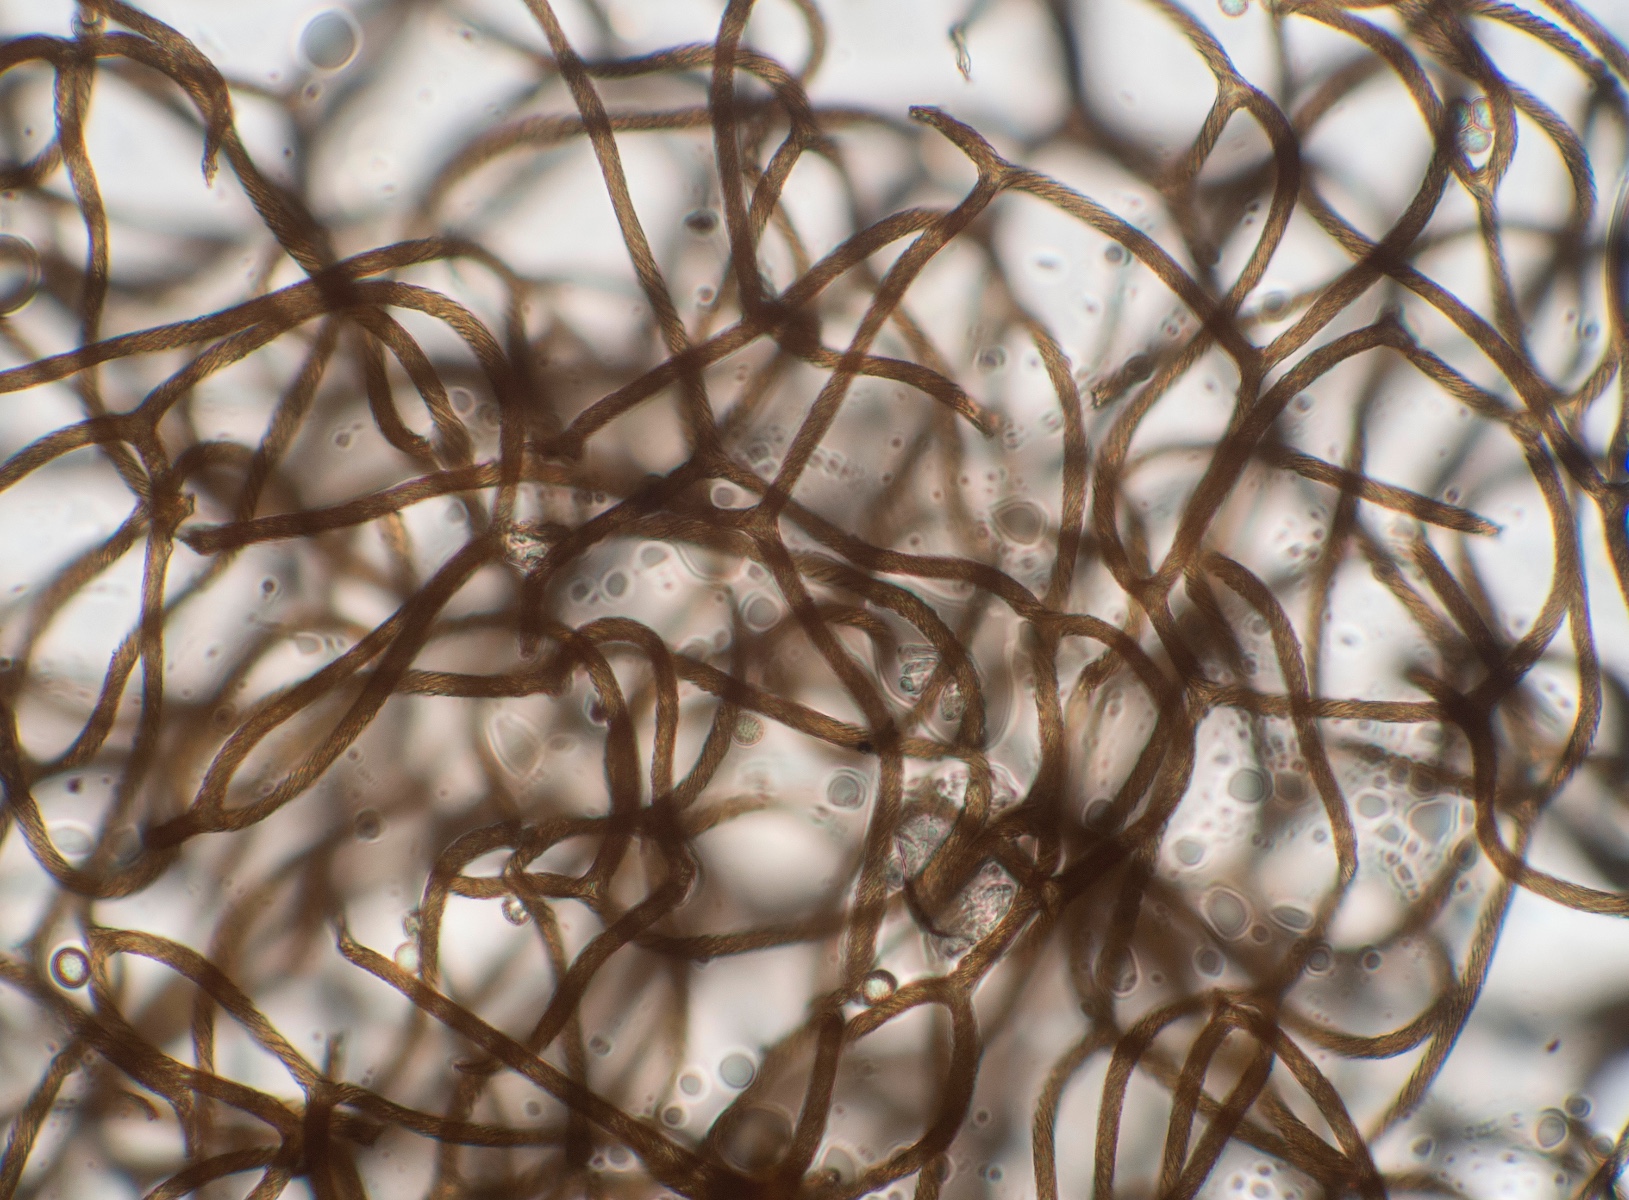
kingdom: Protozoa
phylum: Mycetozoa
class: Myxomycetes
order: Trichiales
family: Arcyriaceae
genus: Hemitrichia
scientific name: Hemitrichia clavata
